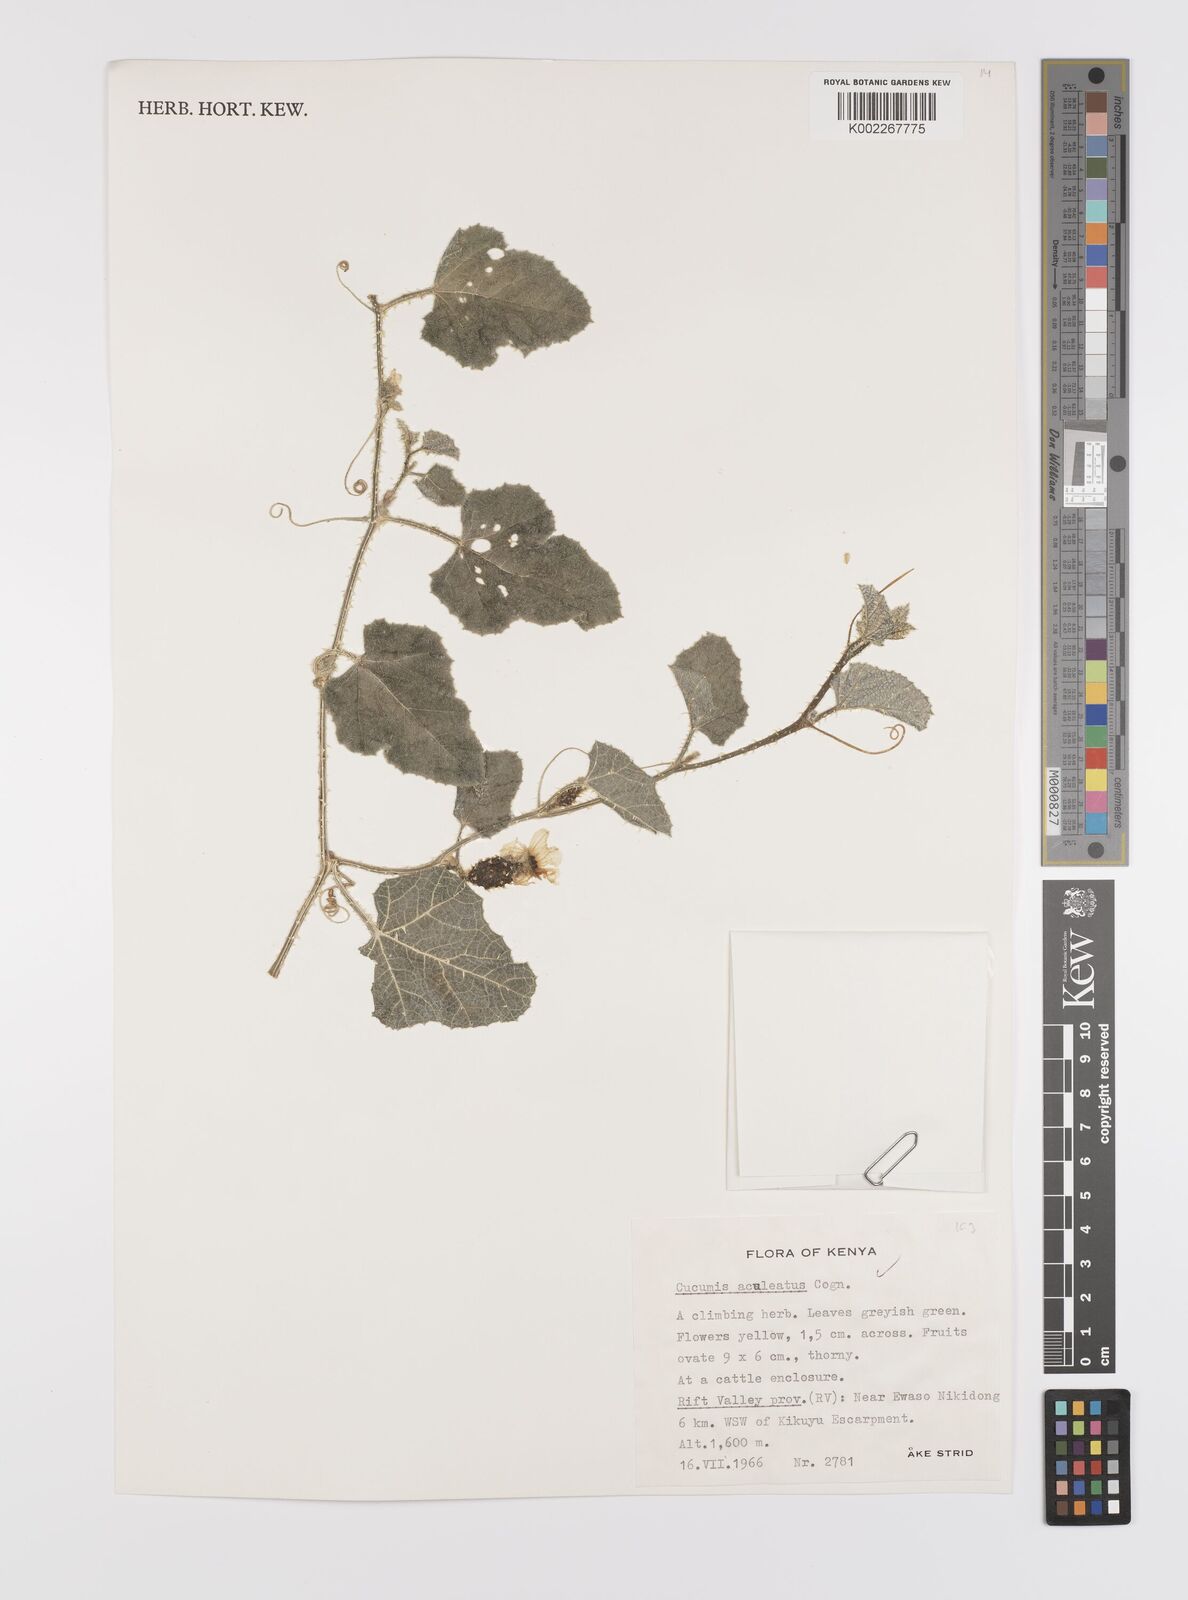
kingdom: Plantae
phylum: Tracheophyta
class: Magnoliopsida
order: Cucurbitales
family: Cucurbitaceae
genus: Cucumis
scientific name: Cucumis aculeatus
